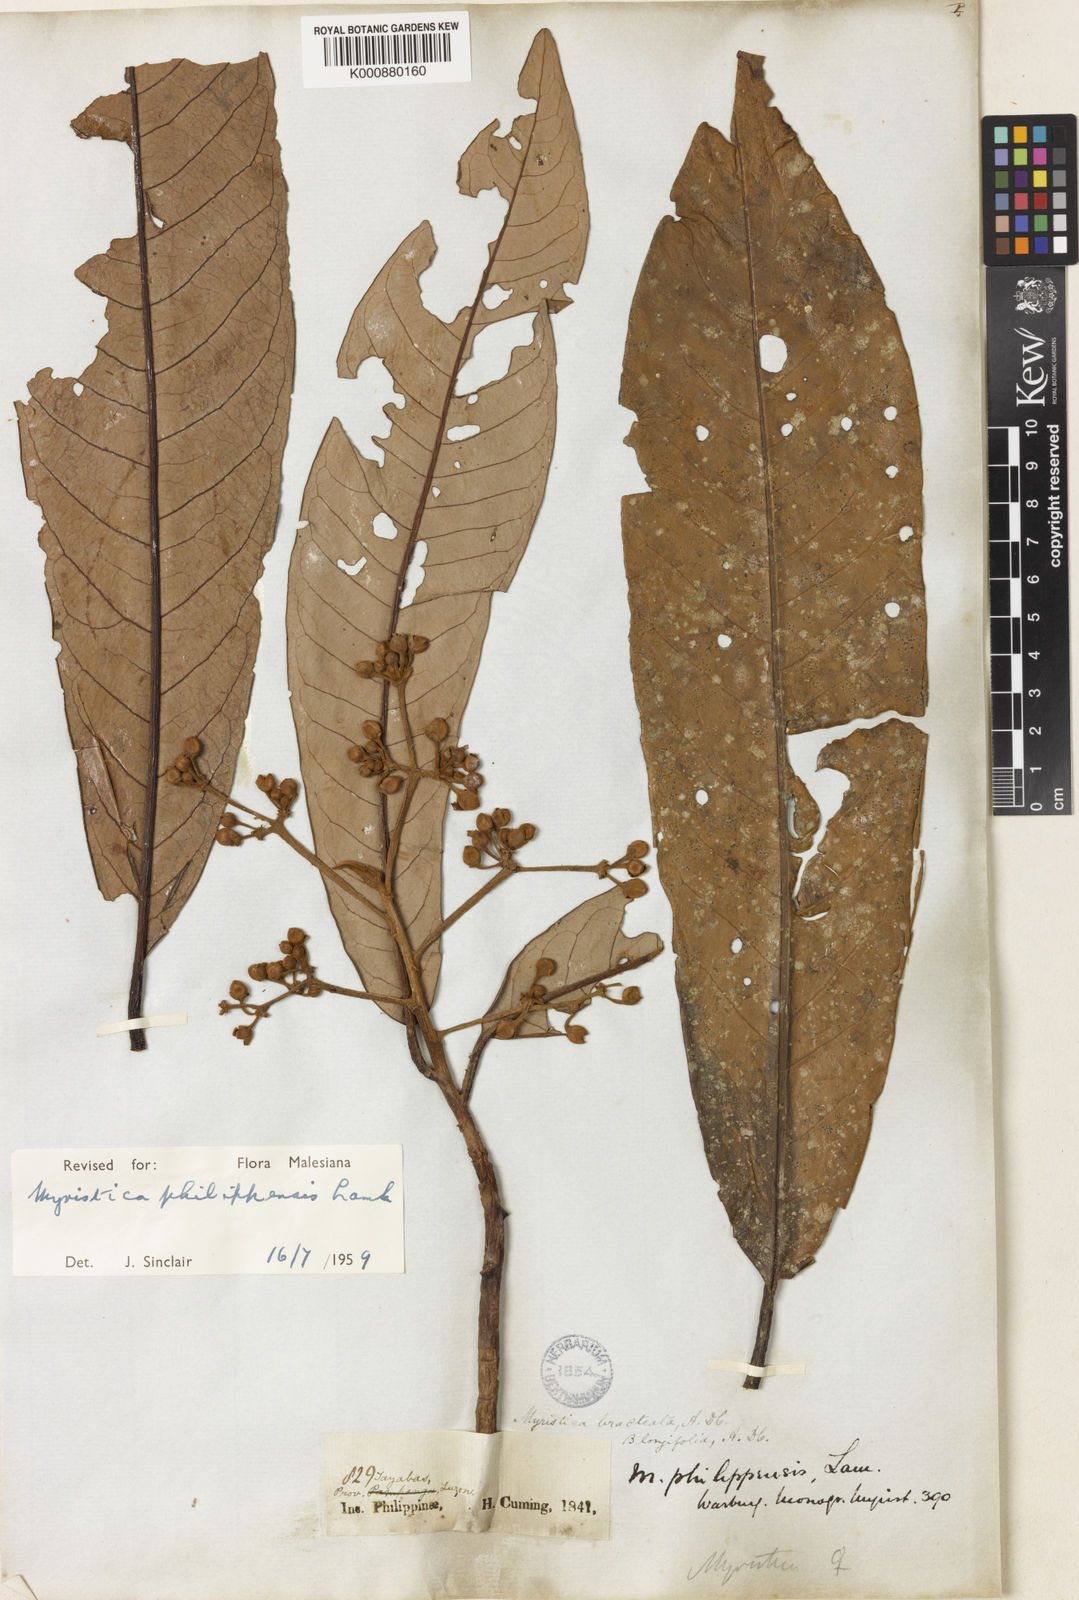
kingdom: Plantae
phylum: Tracheophyta
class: Magnoliopsida
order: Magnoliales
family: Myristicaceae
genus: Myristica
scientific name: Myristica philippensis
